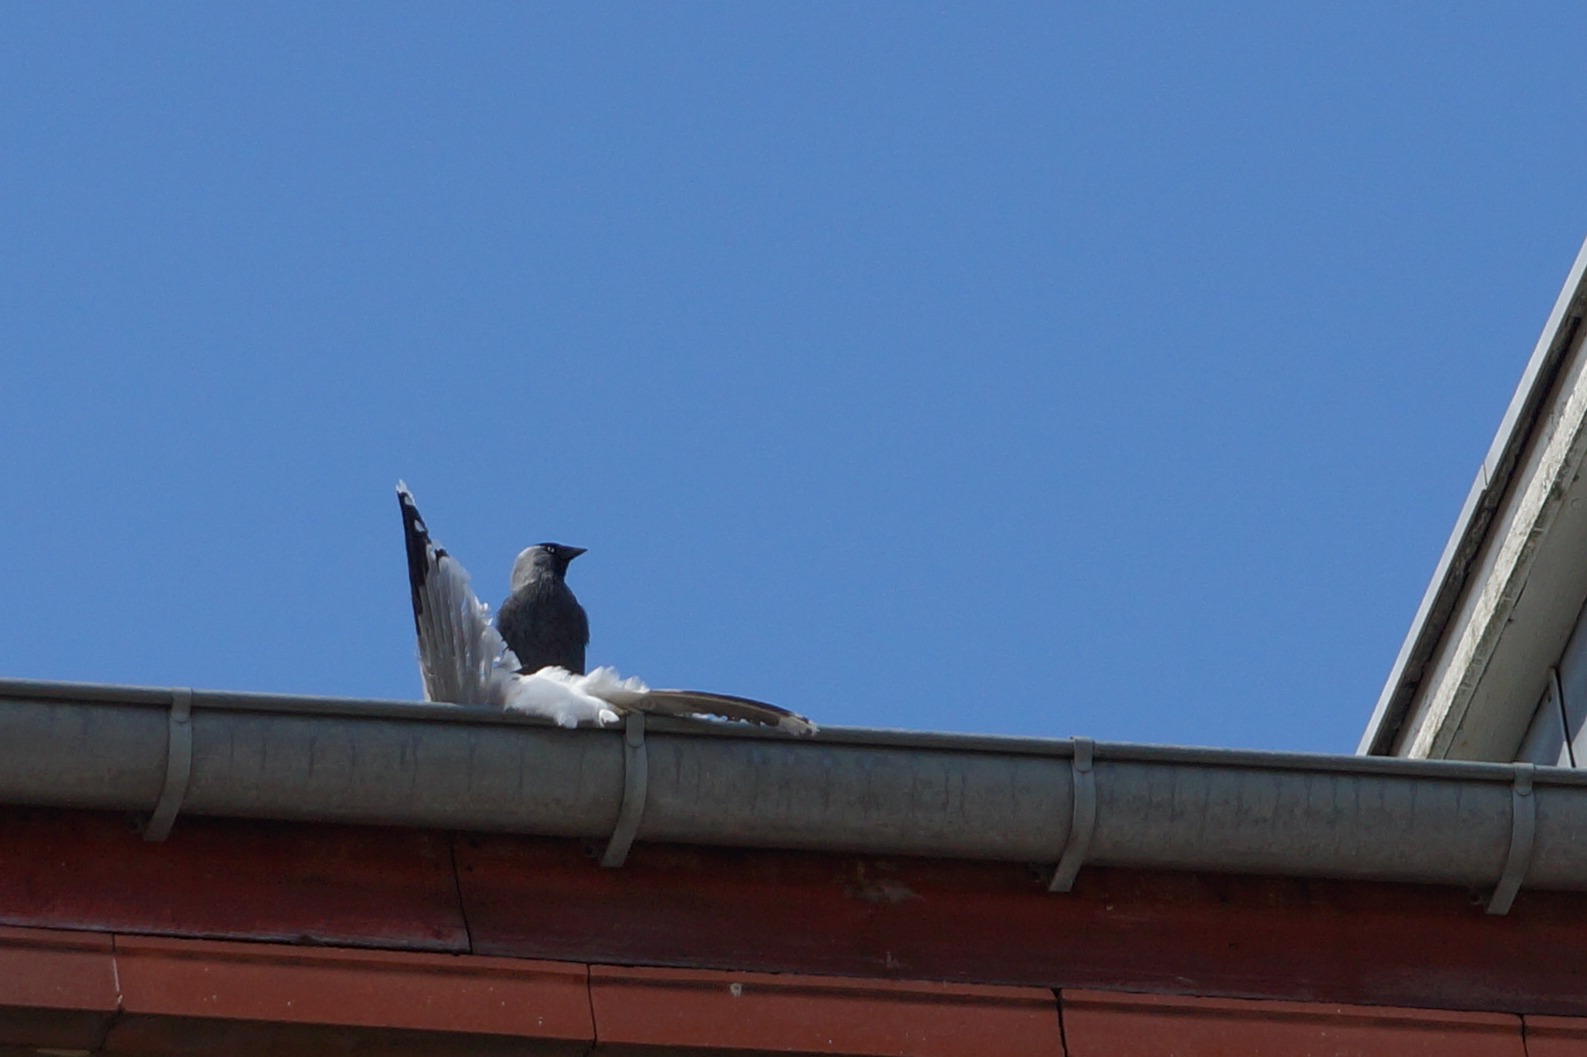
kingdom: Animalia
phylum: Chordata
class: Aves
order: Passeriformes
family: Corvidae
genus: Coloeus
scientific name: Coloeus monedula
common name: Allike
